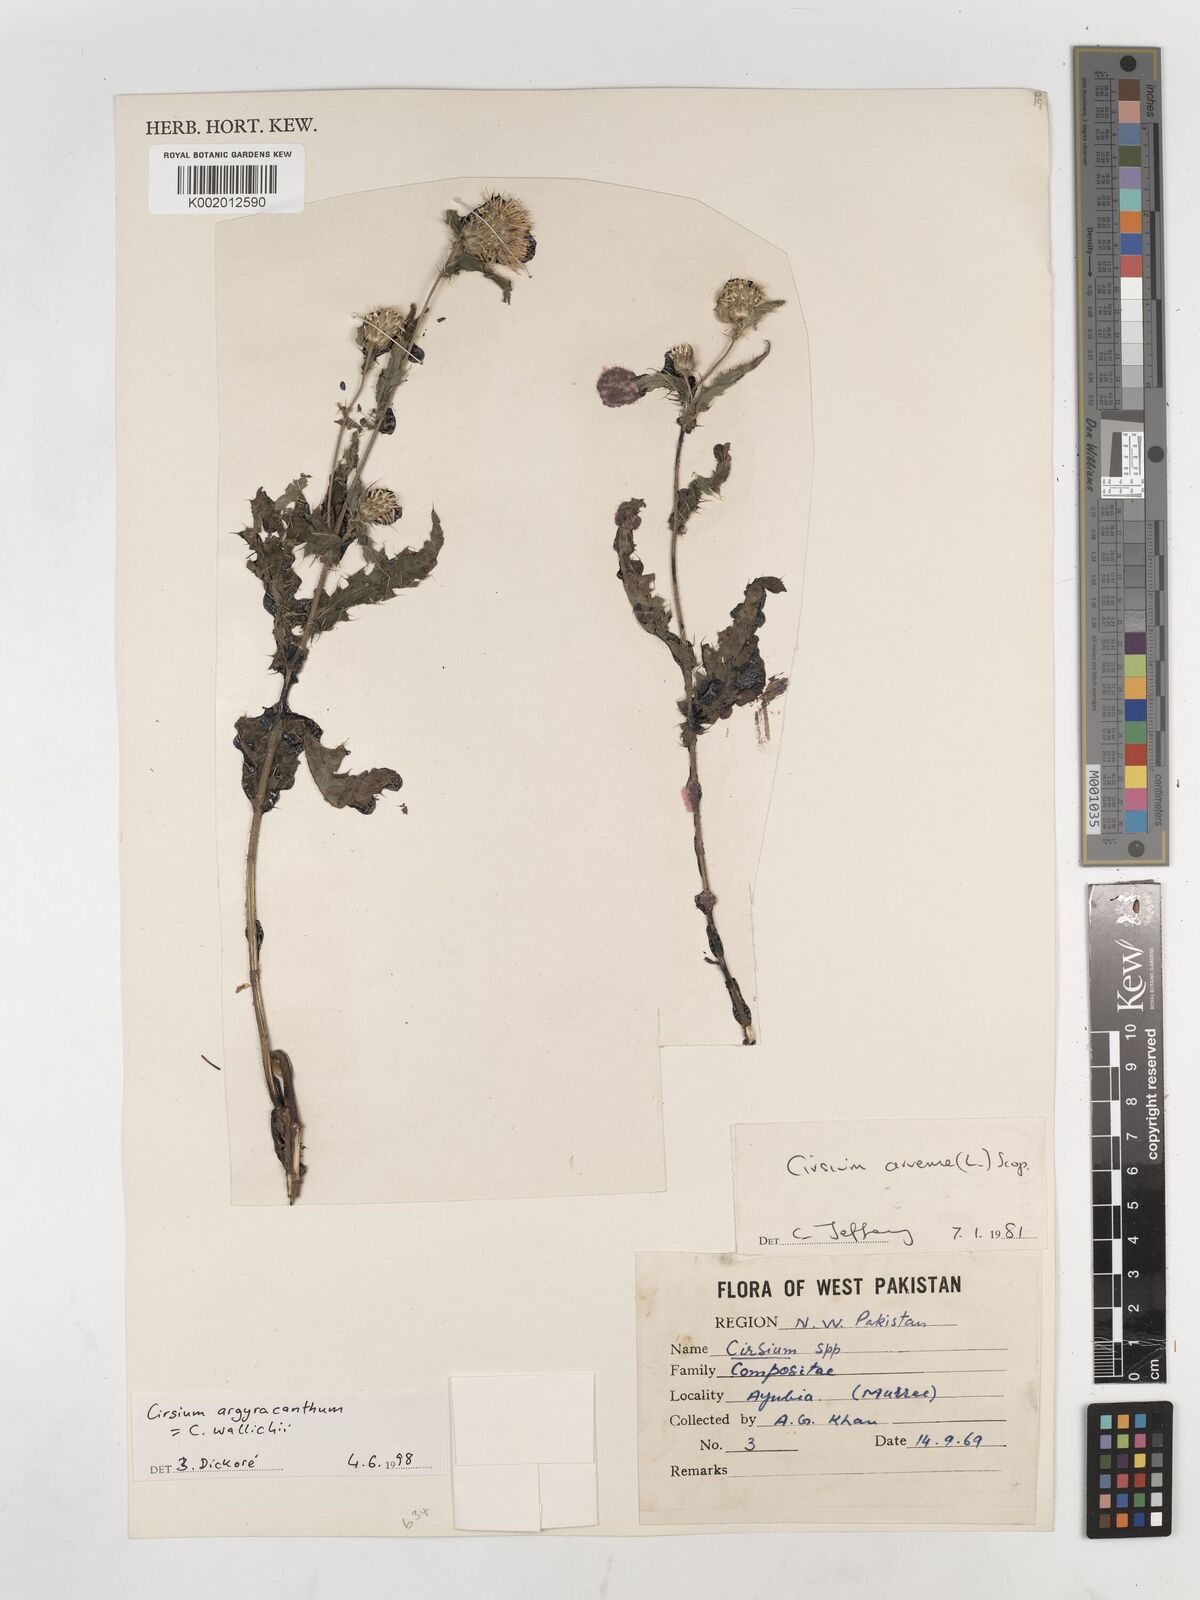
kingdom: Plantae
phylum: Tracheophyta
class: Magnoliopsida
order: Asterales
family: Asteraceae
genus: Cirsium
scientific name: Cirsium wallichii
